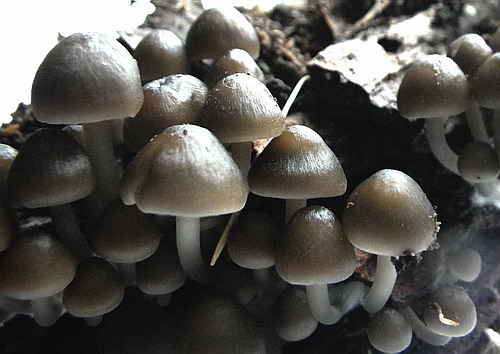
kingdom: Fungi
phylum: Basidiomycota
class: Agaricomycetes
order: Agaricales
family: Mycenaceae
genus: Mycena
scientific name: Mycena tintinnabulum
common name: vinter-huesvamp
